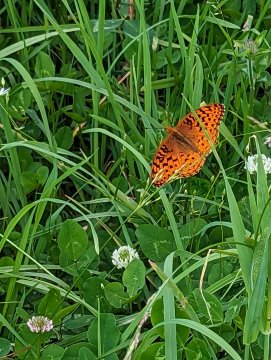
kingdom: Animalia
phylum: Arthropoda
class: Insecta
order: Lepidoptera
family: Nymphalidae
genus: Speyeria
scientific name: Speyeria aphrodite
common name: Aphrodite Fritillary
